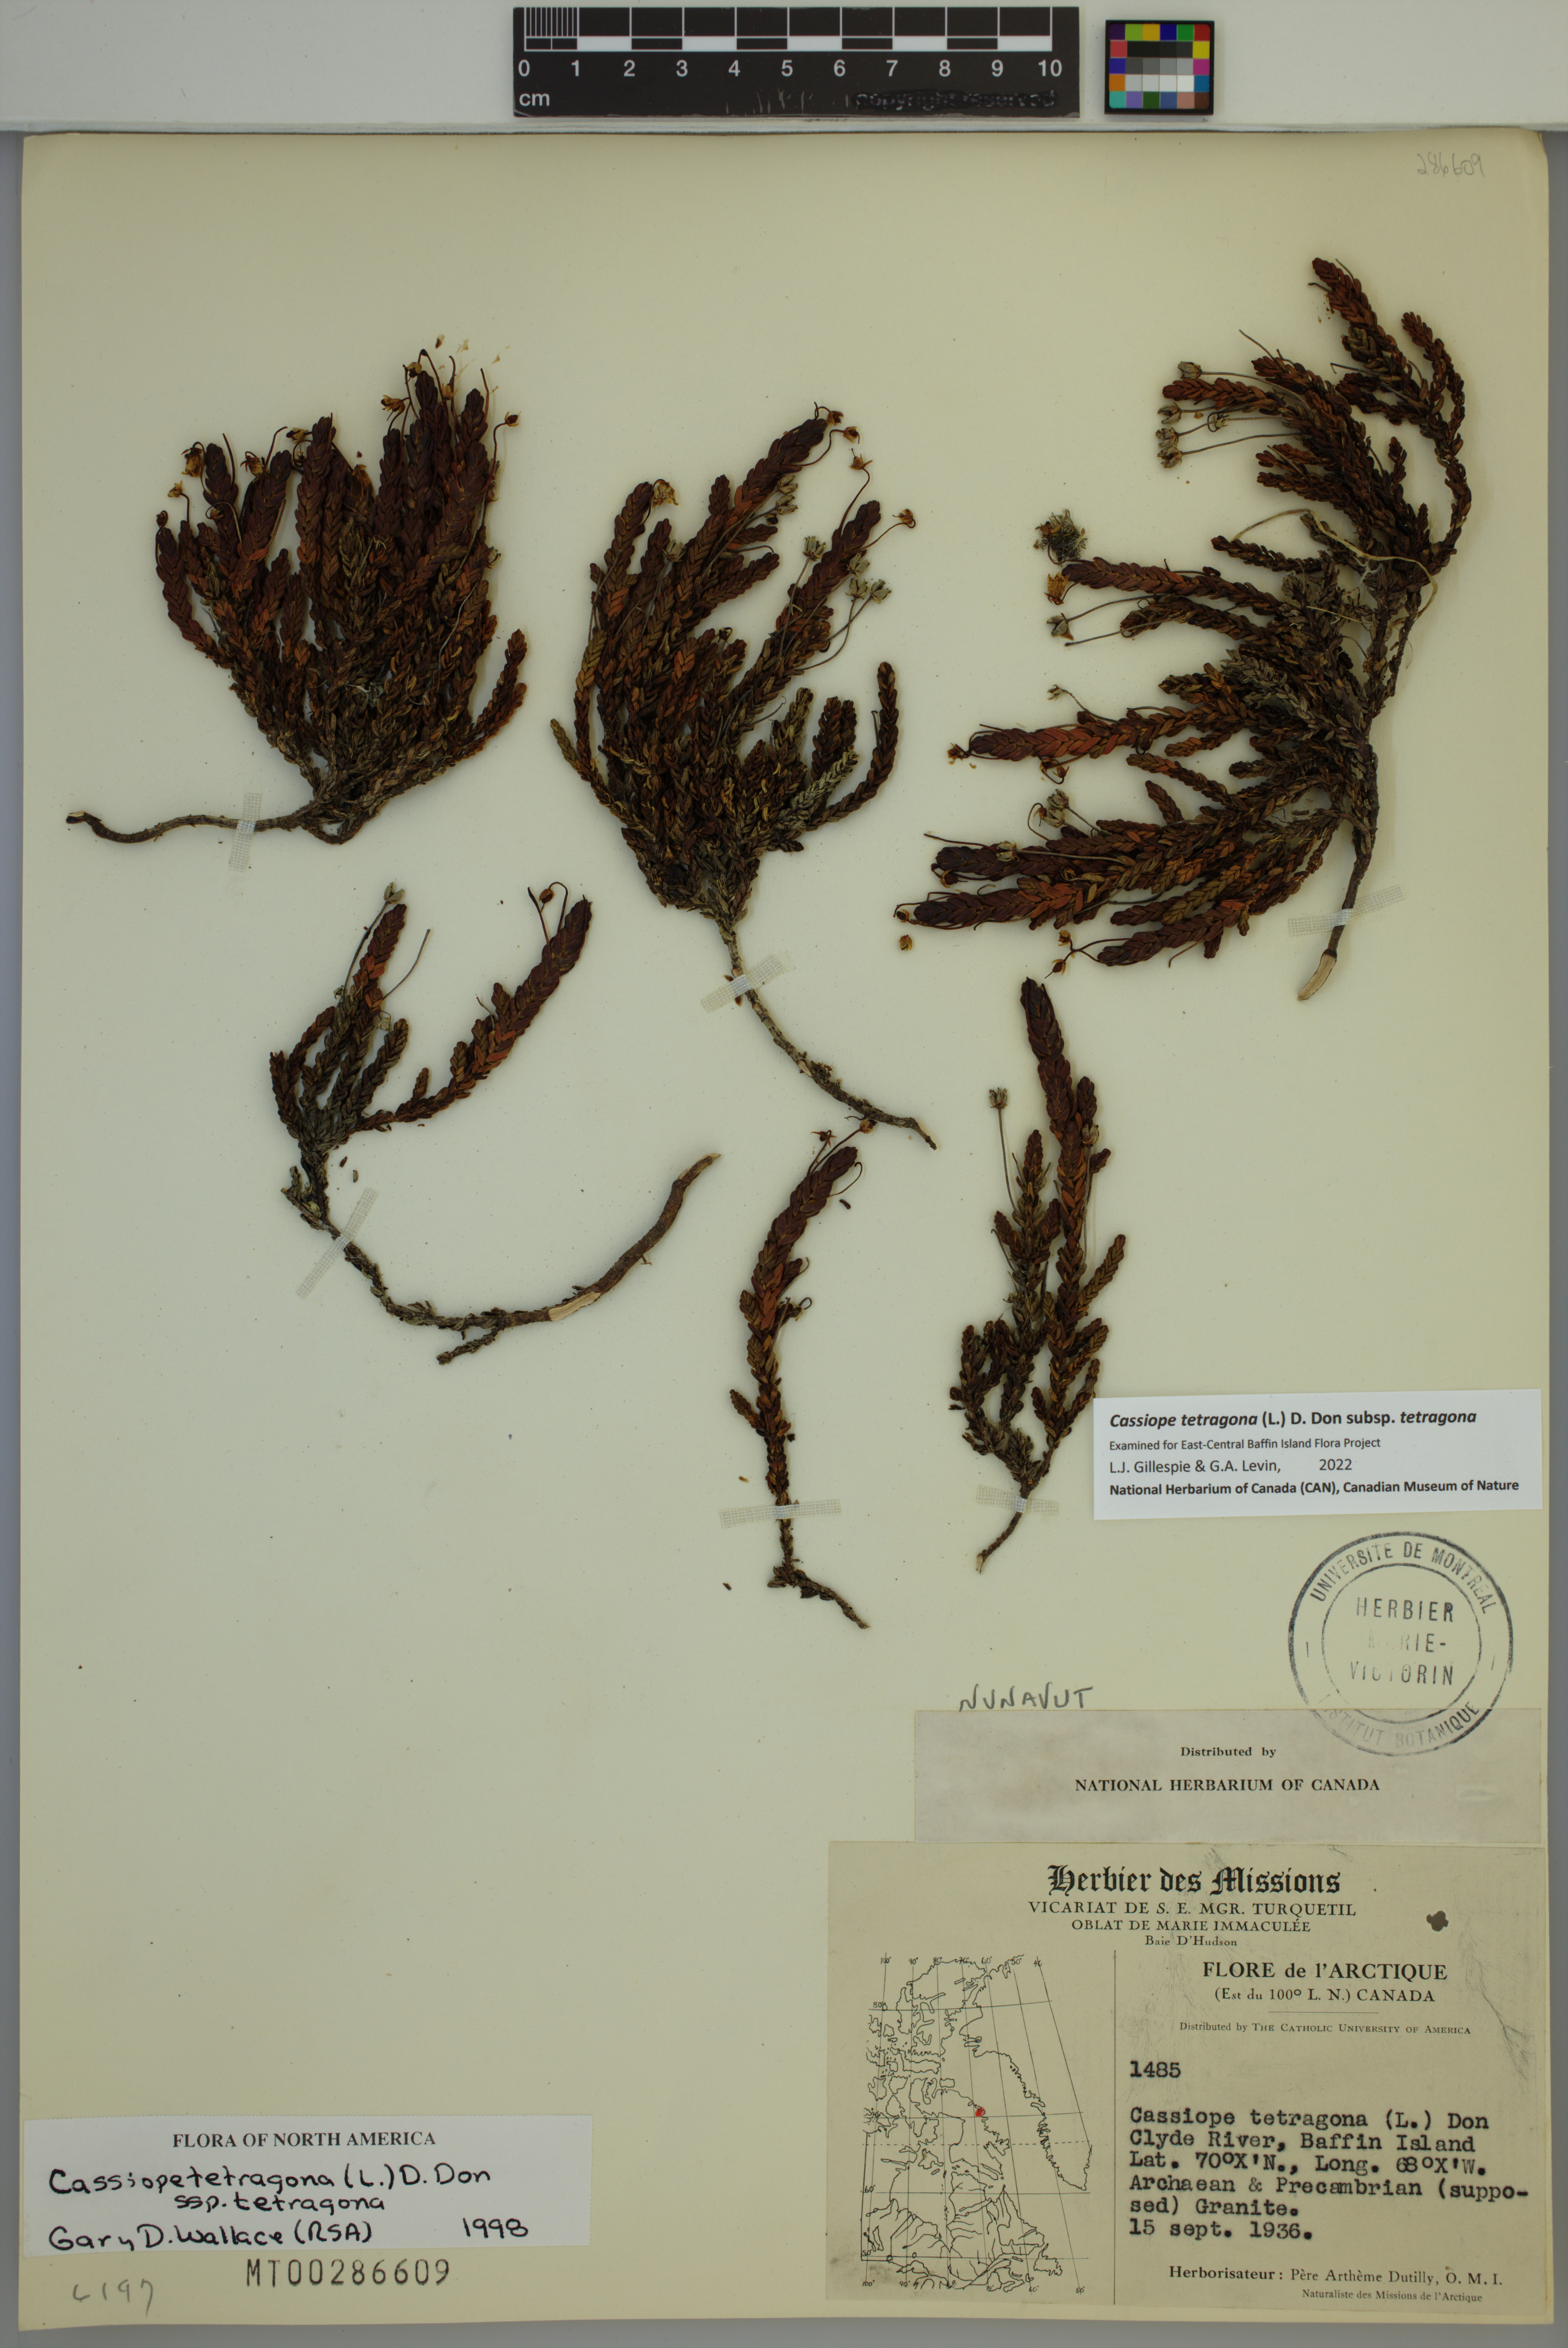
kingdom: Plantae
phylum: Tracheophyta
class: Magnoliopsida
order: Ericales
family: Ericaceae
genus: Cassiope
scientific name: Cassiope tetragona
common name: Arctic bell heather
